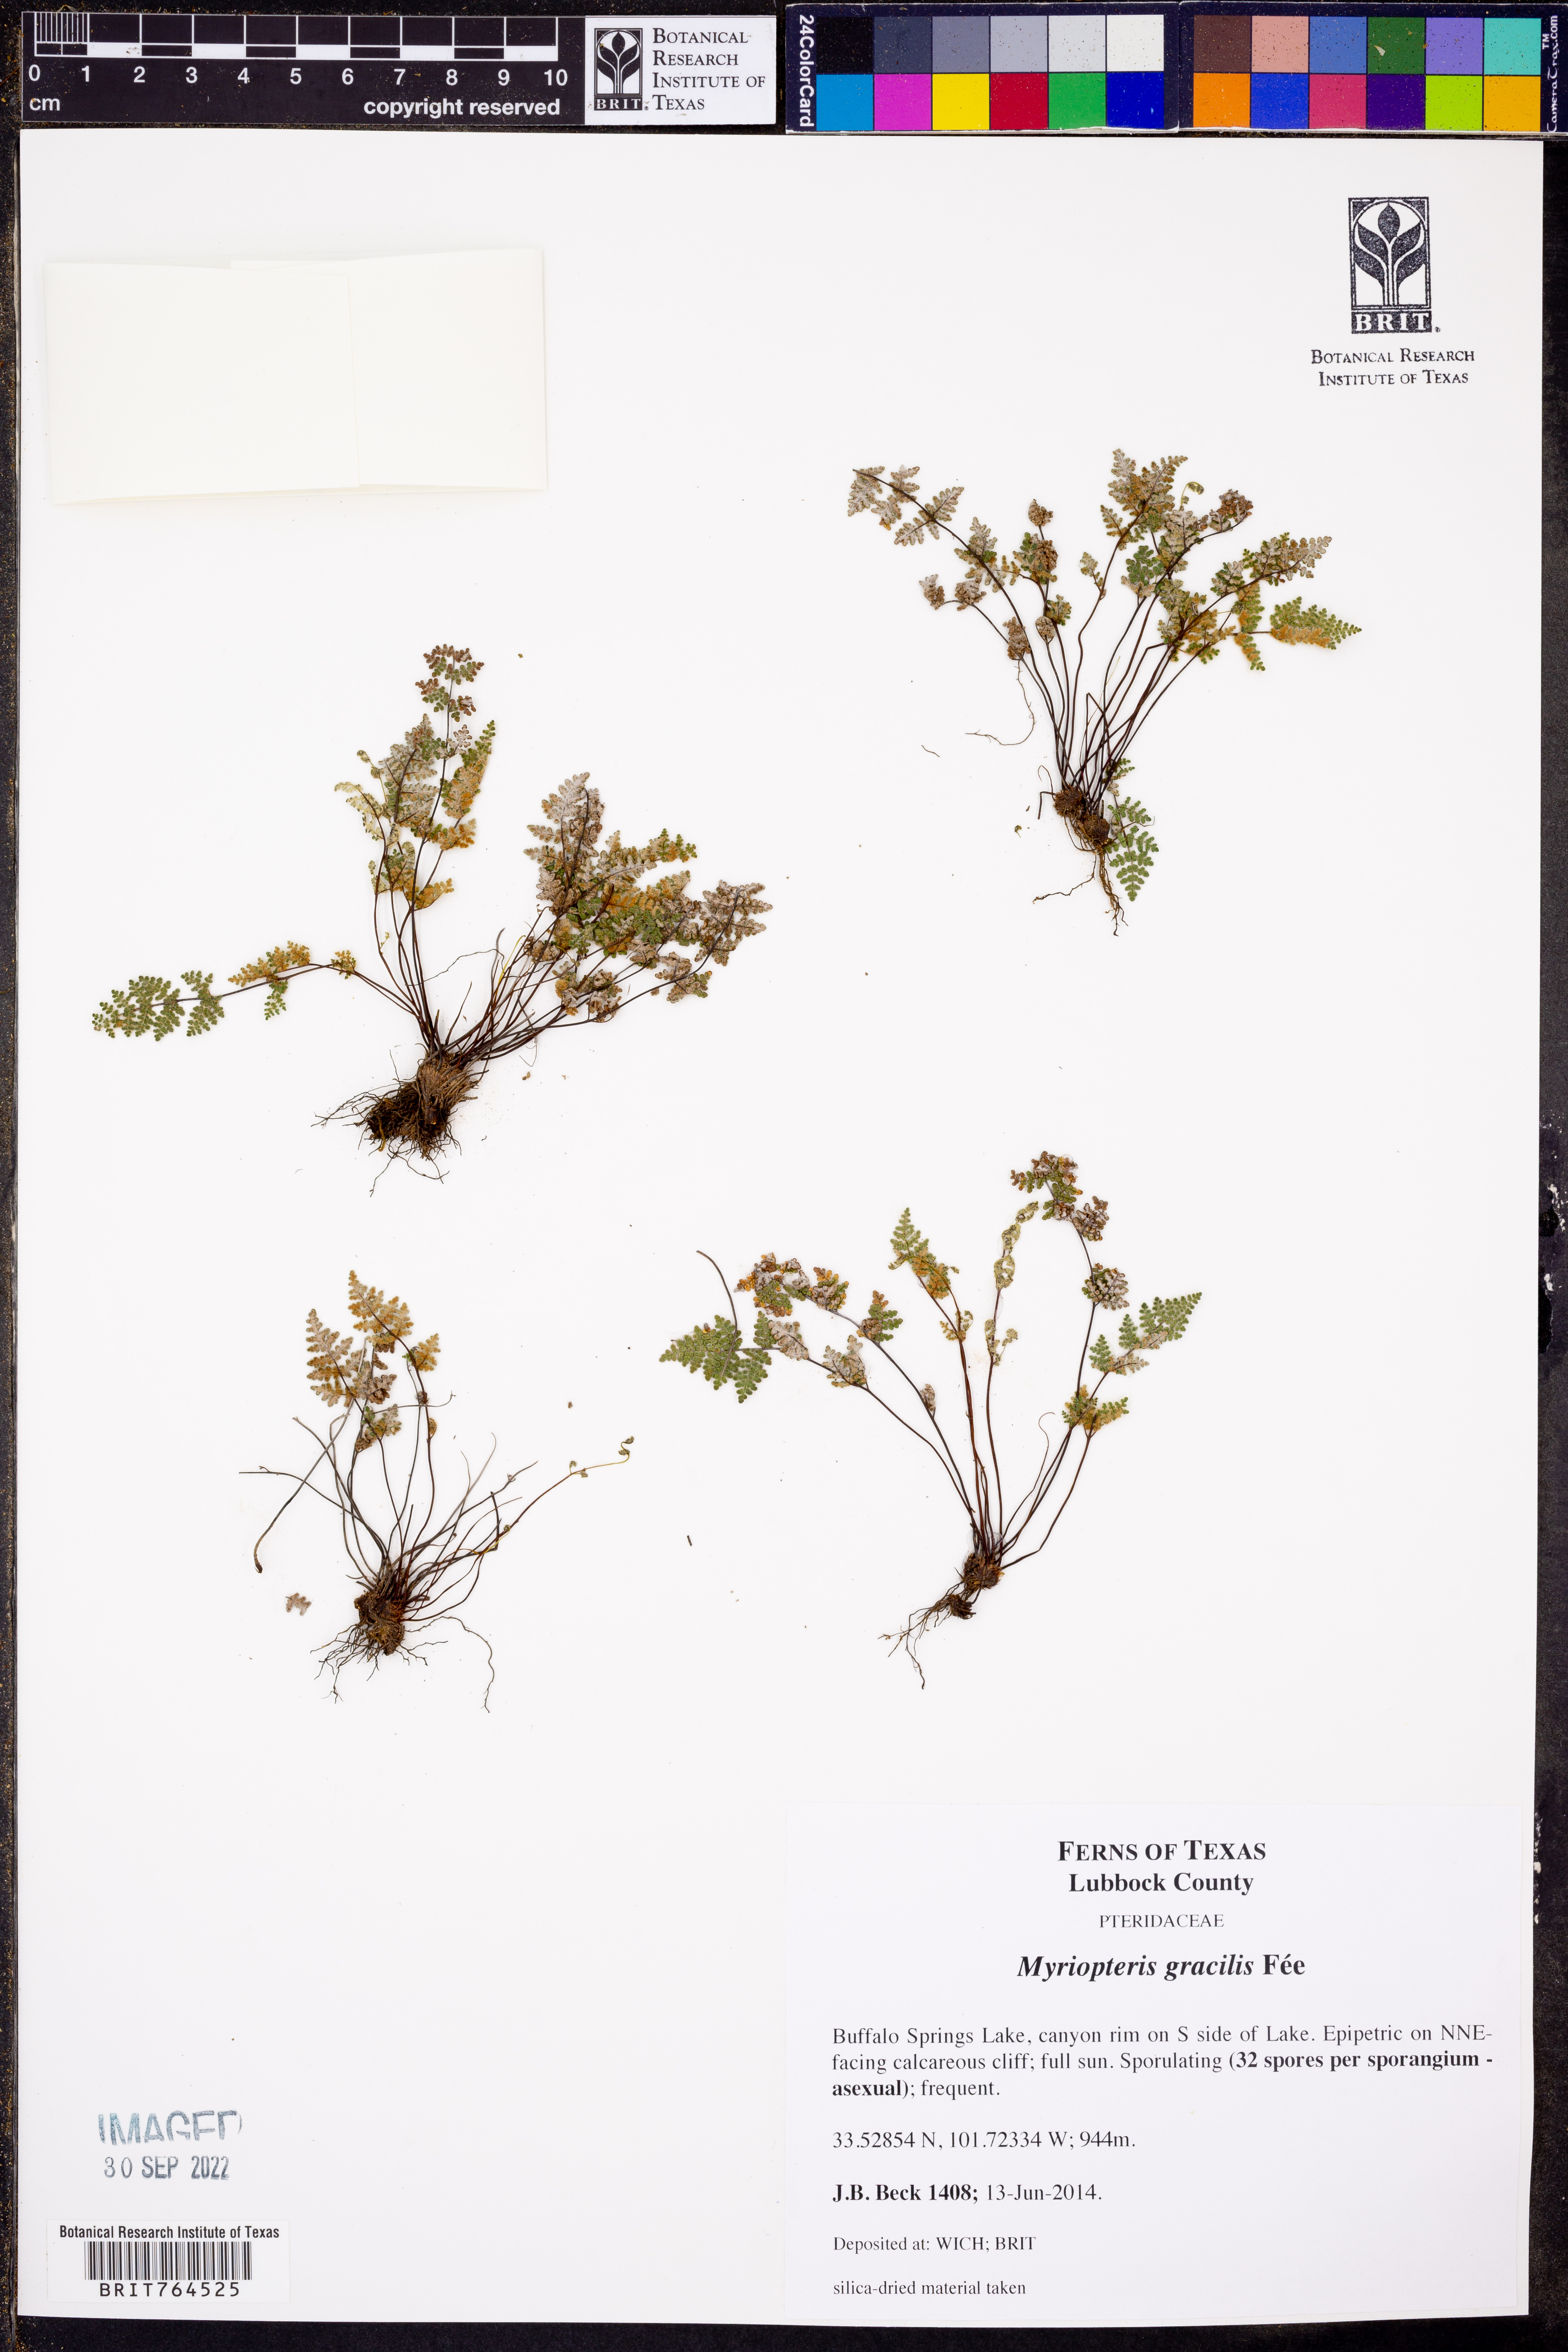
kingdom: Plantae
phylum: Tracheophyta
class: Polypodiopsida
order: Polypodiales
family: Pteridaceae
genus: Myriopteris
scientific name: Myriopteris gracilis
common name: Fee's lip fern
